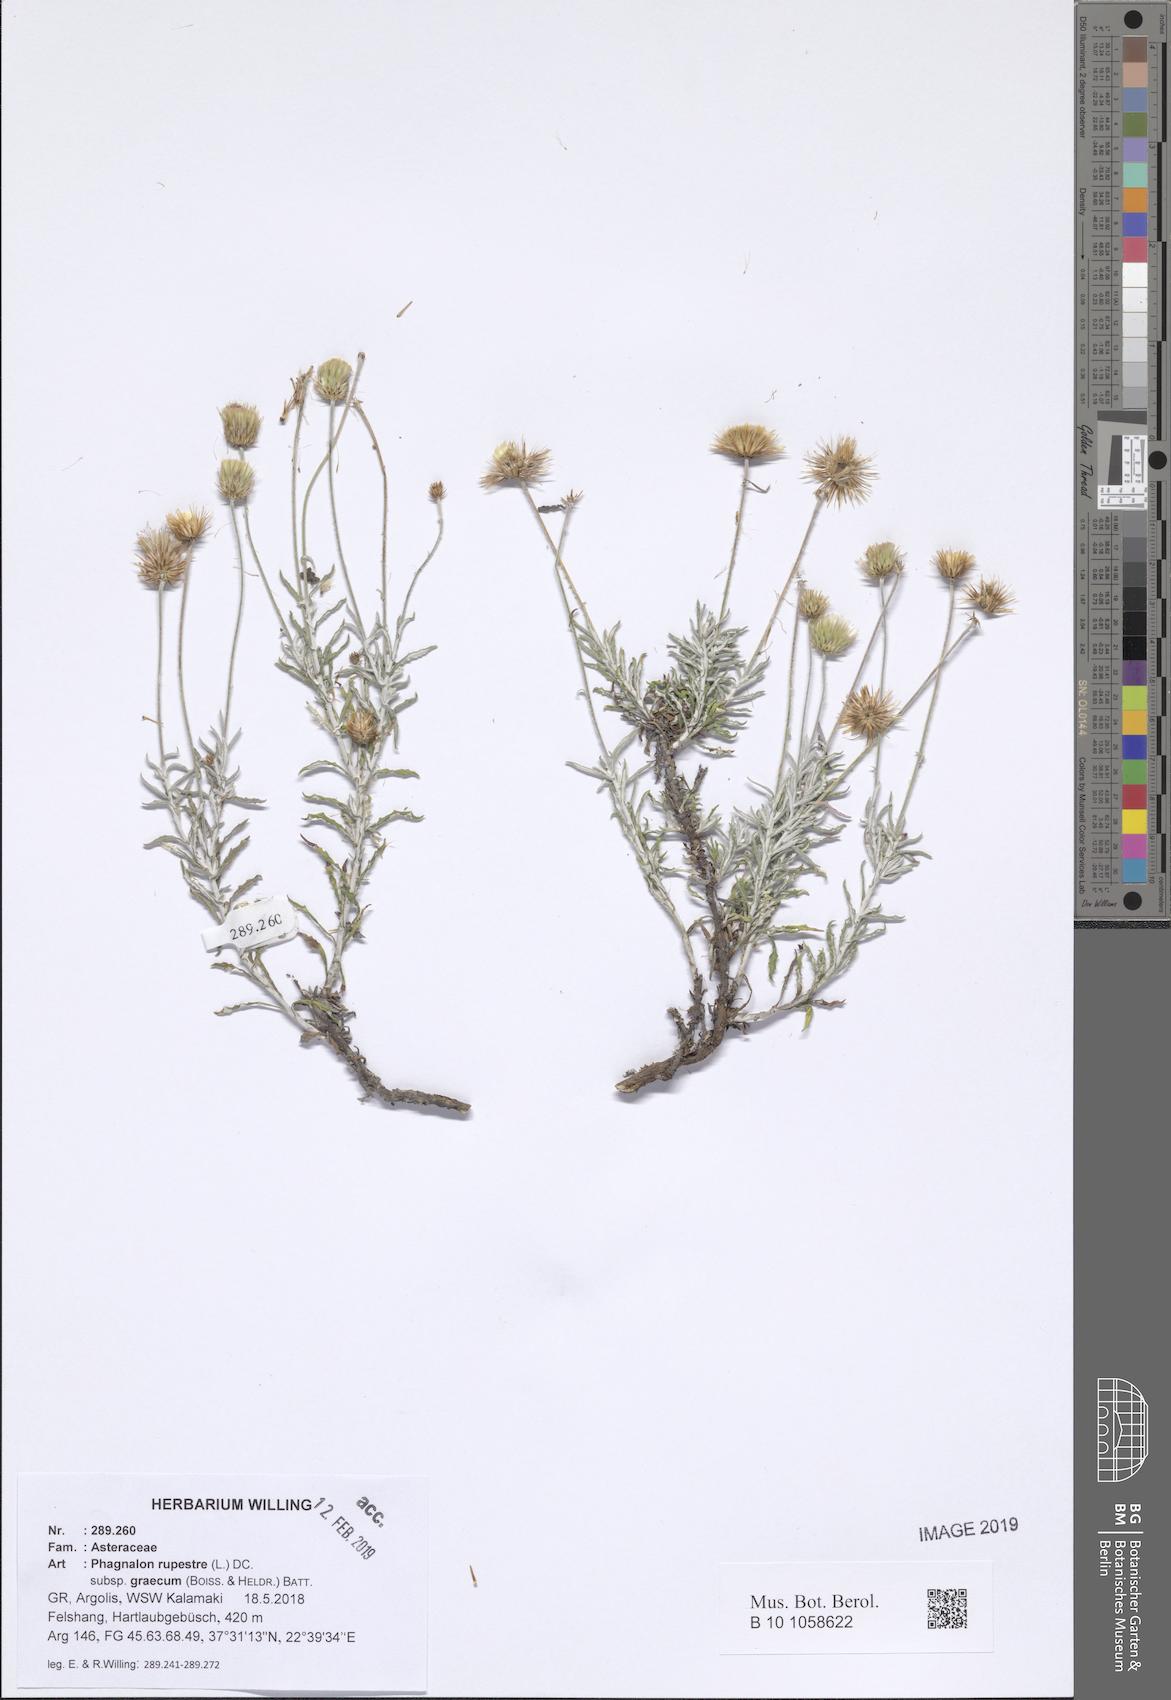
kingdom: Plantae
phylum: Tracheophyta
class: Magnoliopsida
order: Asterales
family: Asteraceae
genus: Phagnalon
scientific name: Phagnalon graecum
